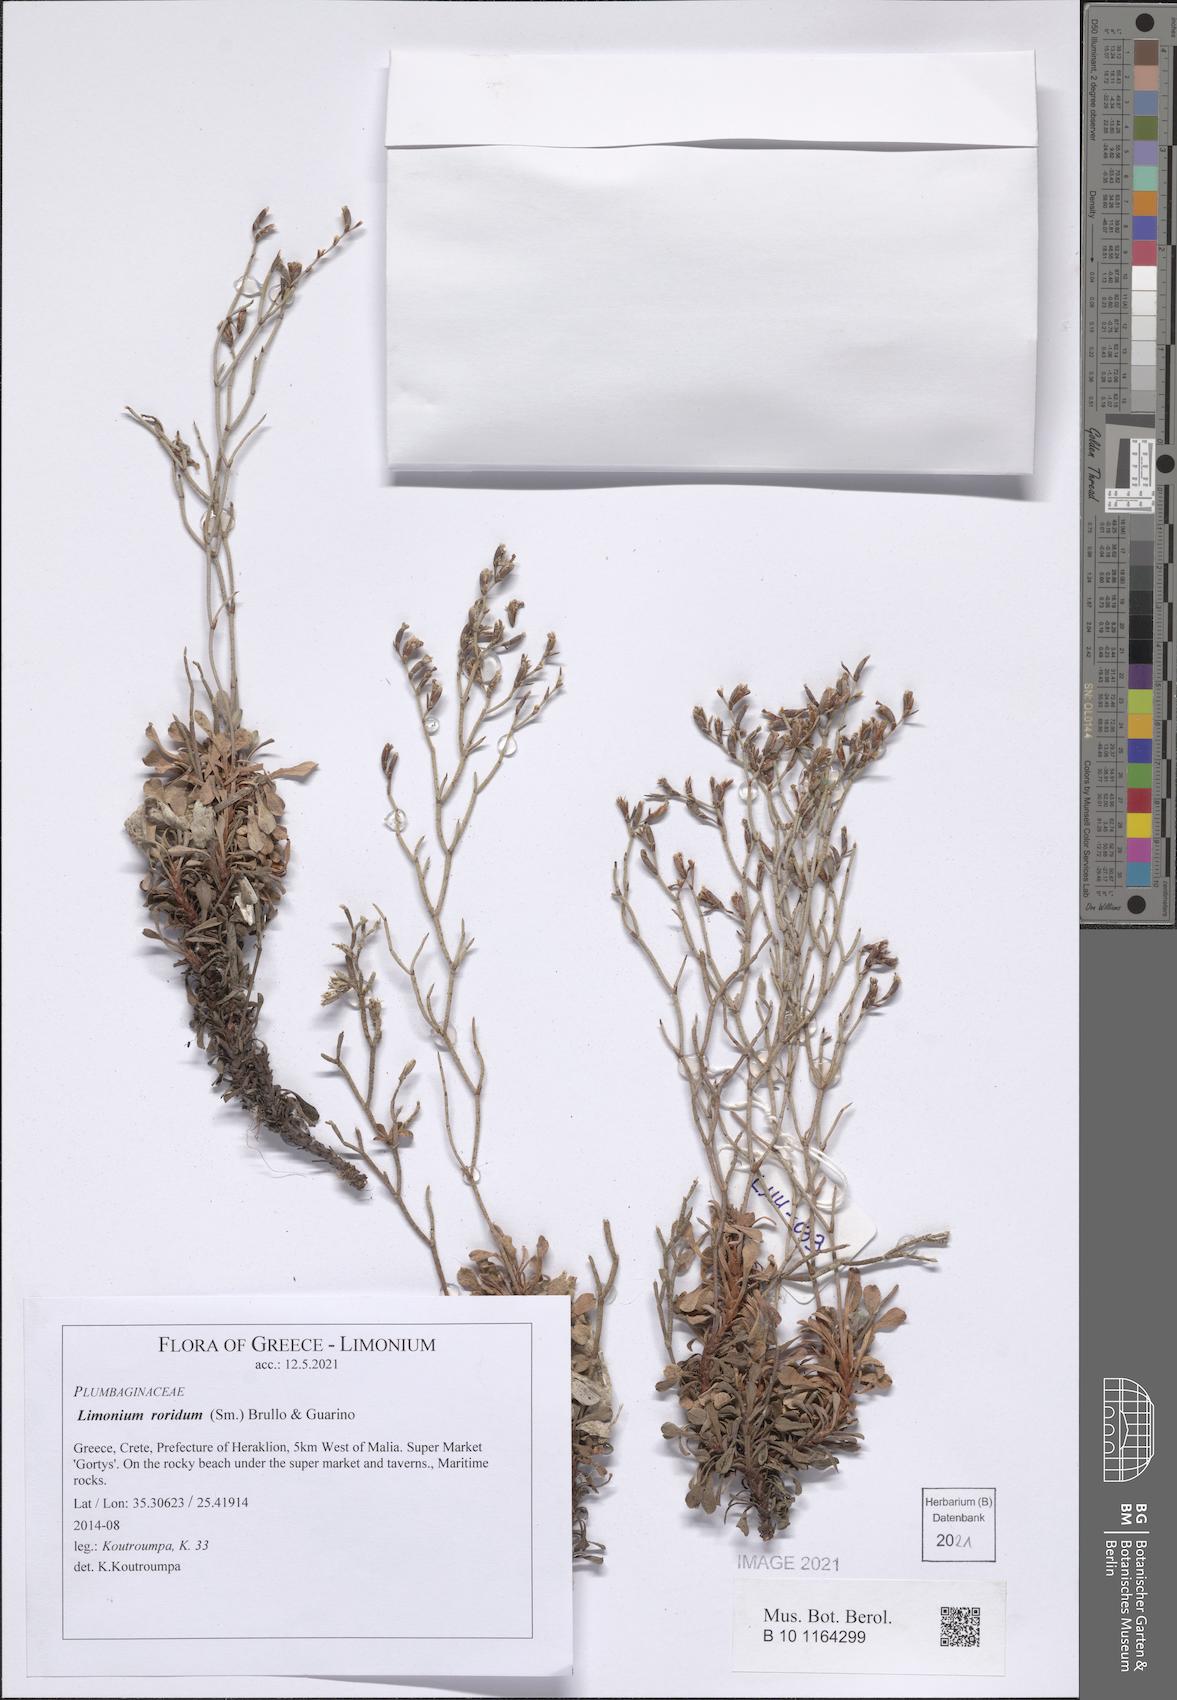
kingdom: Plantae
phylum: Tracheophyta
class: Magnoliopsida
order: Caryophyllales
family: Plumbaginaceae
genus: Limonium
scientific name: Limonium roridum
